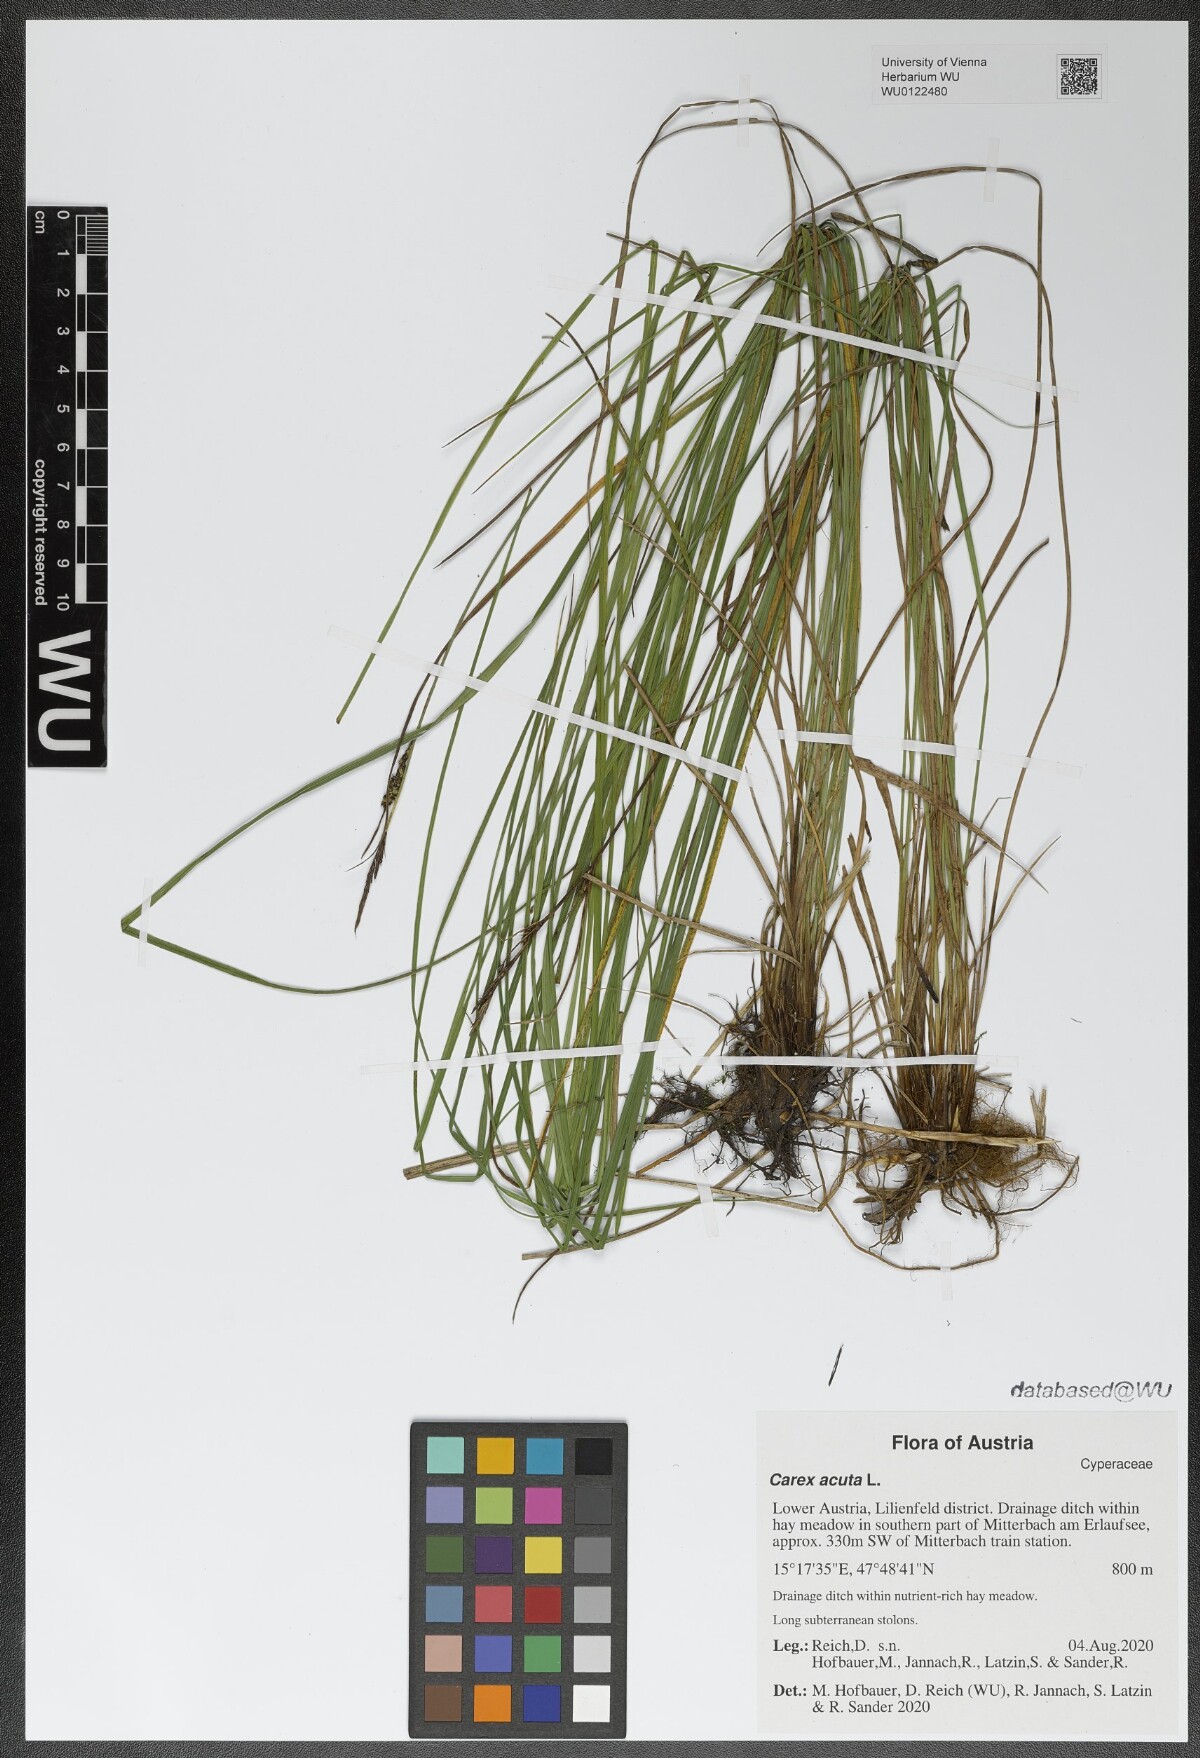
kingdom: Plantae
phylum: Tracheophyta
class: Liliopsida
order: Poales
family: Cyperaceae
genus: Carex
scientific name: Carex acuta
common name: Slender tufted-sedge
